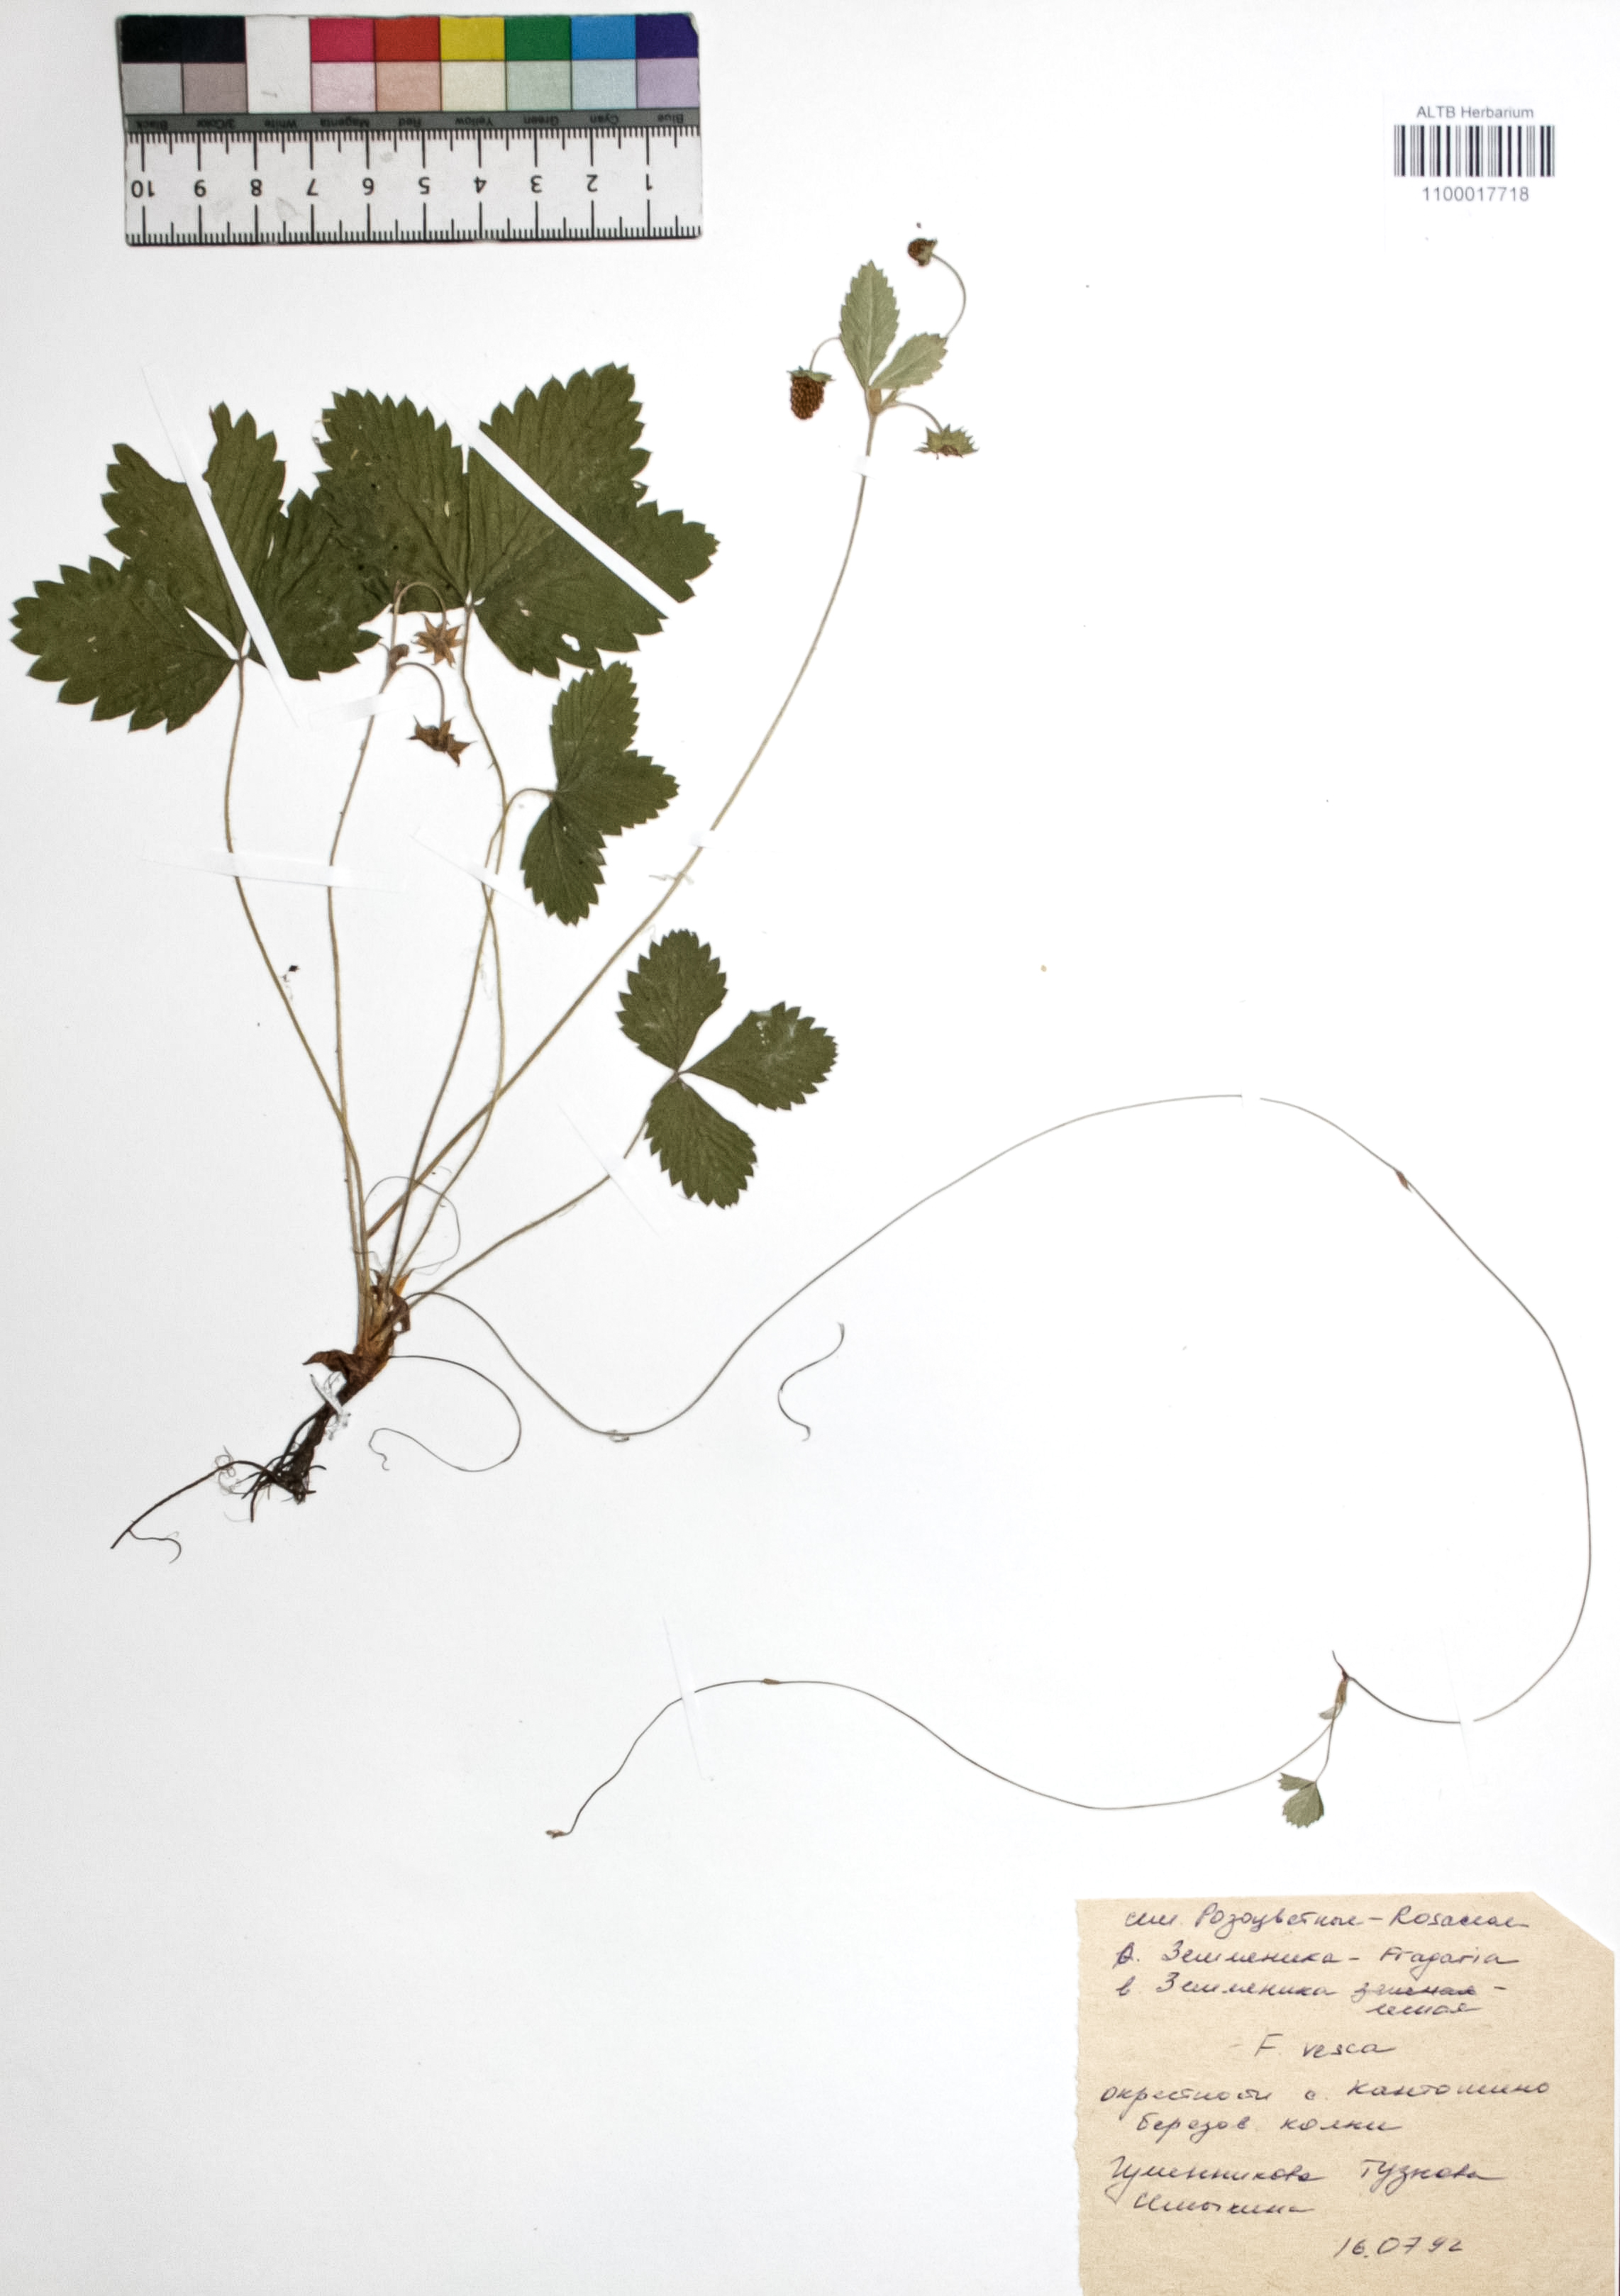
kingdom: Plantae
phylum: Tracheophyta
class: Magnoliopsida
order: Rosales
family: Rosaceae
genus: Fragaria
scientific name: Fragaria vesca
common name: Wild strawberry
